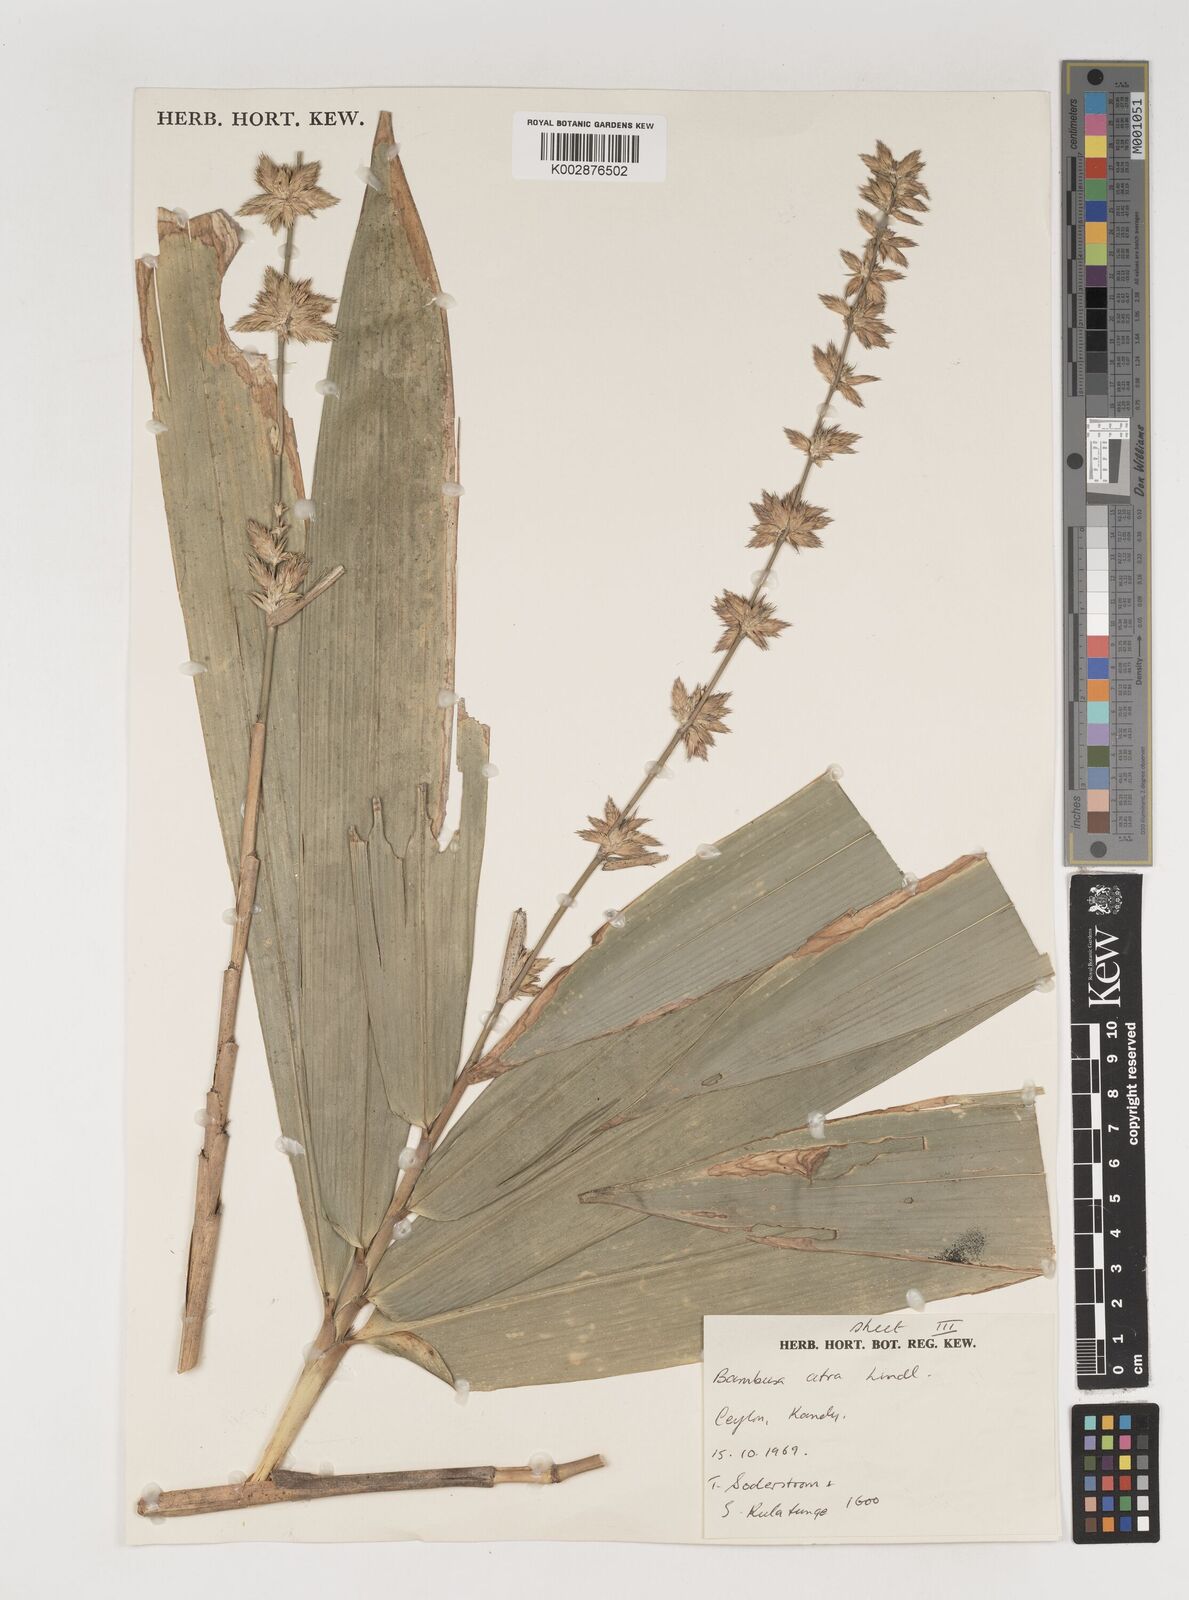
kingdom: Plantae
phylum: Tracheophyta
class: Liliopsida
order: Poales
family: Poaceae
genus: Bambusa
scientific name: Bambusa
